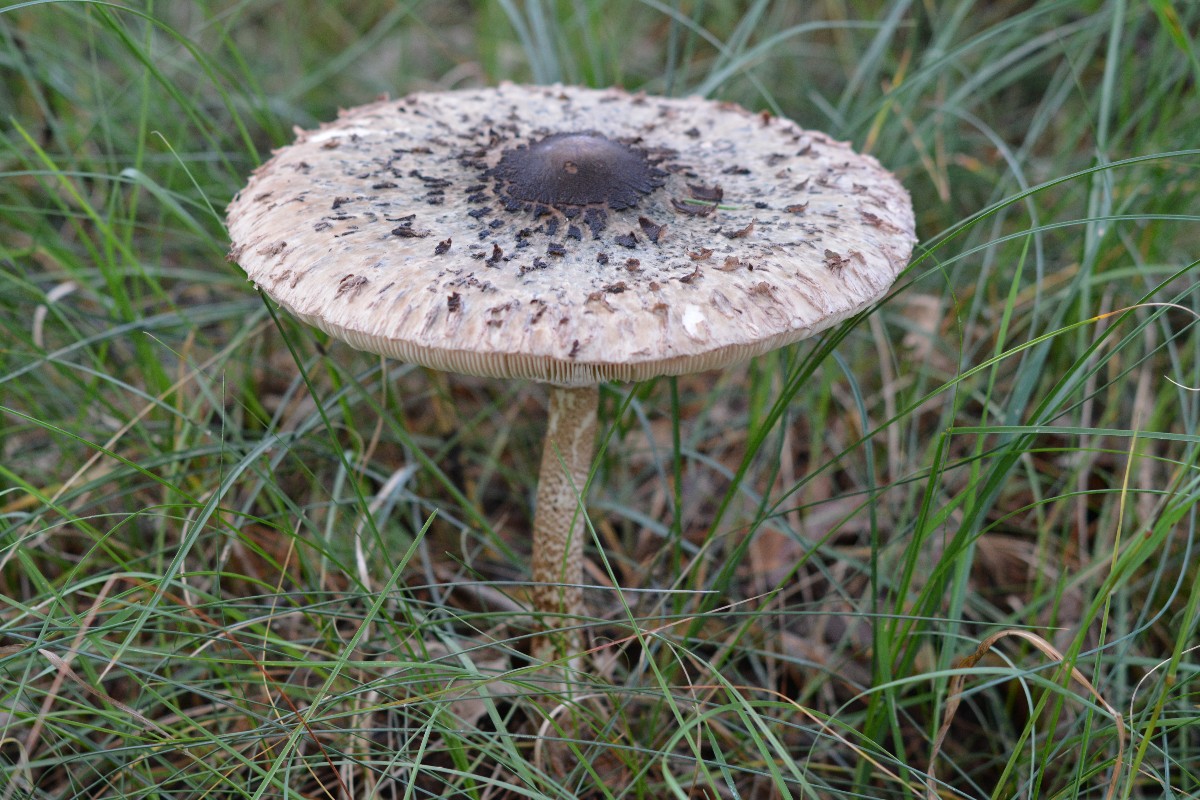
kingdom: Fungi
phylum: Basidiomycota
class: Agaricomycetes
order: Agaricales
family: Agaricaceae
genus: Macrolepiota
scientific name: Macrolepiota procera
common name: stor kæmpeparasolhat
